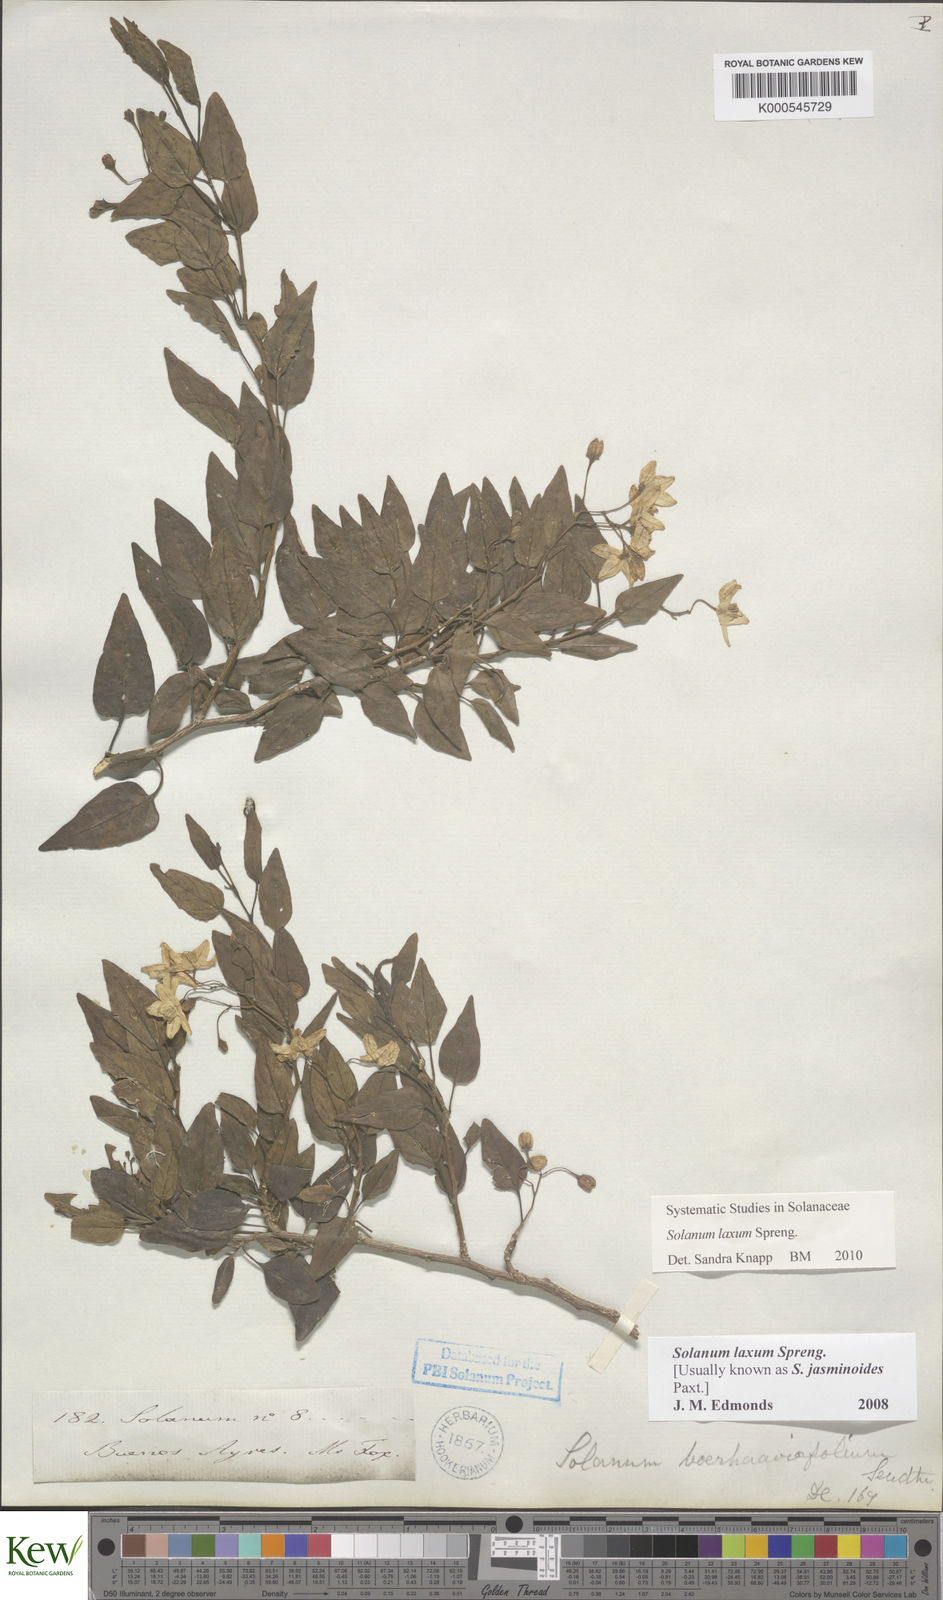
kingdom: Plantae
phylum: Tracheophyta
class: Magnoliopsida
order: Solanales
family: Solanaceae
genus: Solanum
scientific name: Solanum laxum
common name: Nightshade
